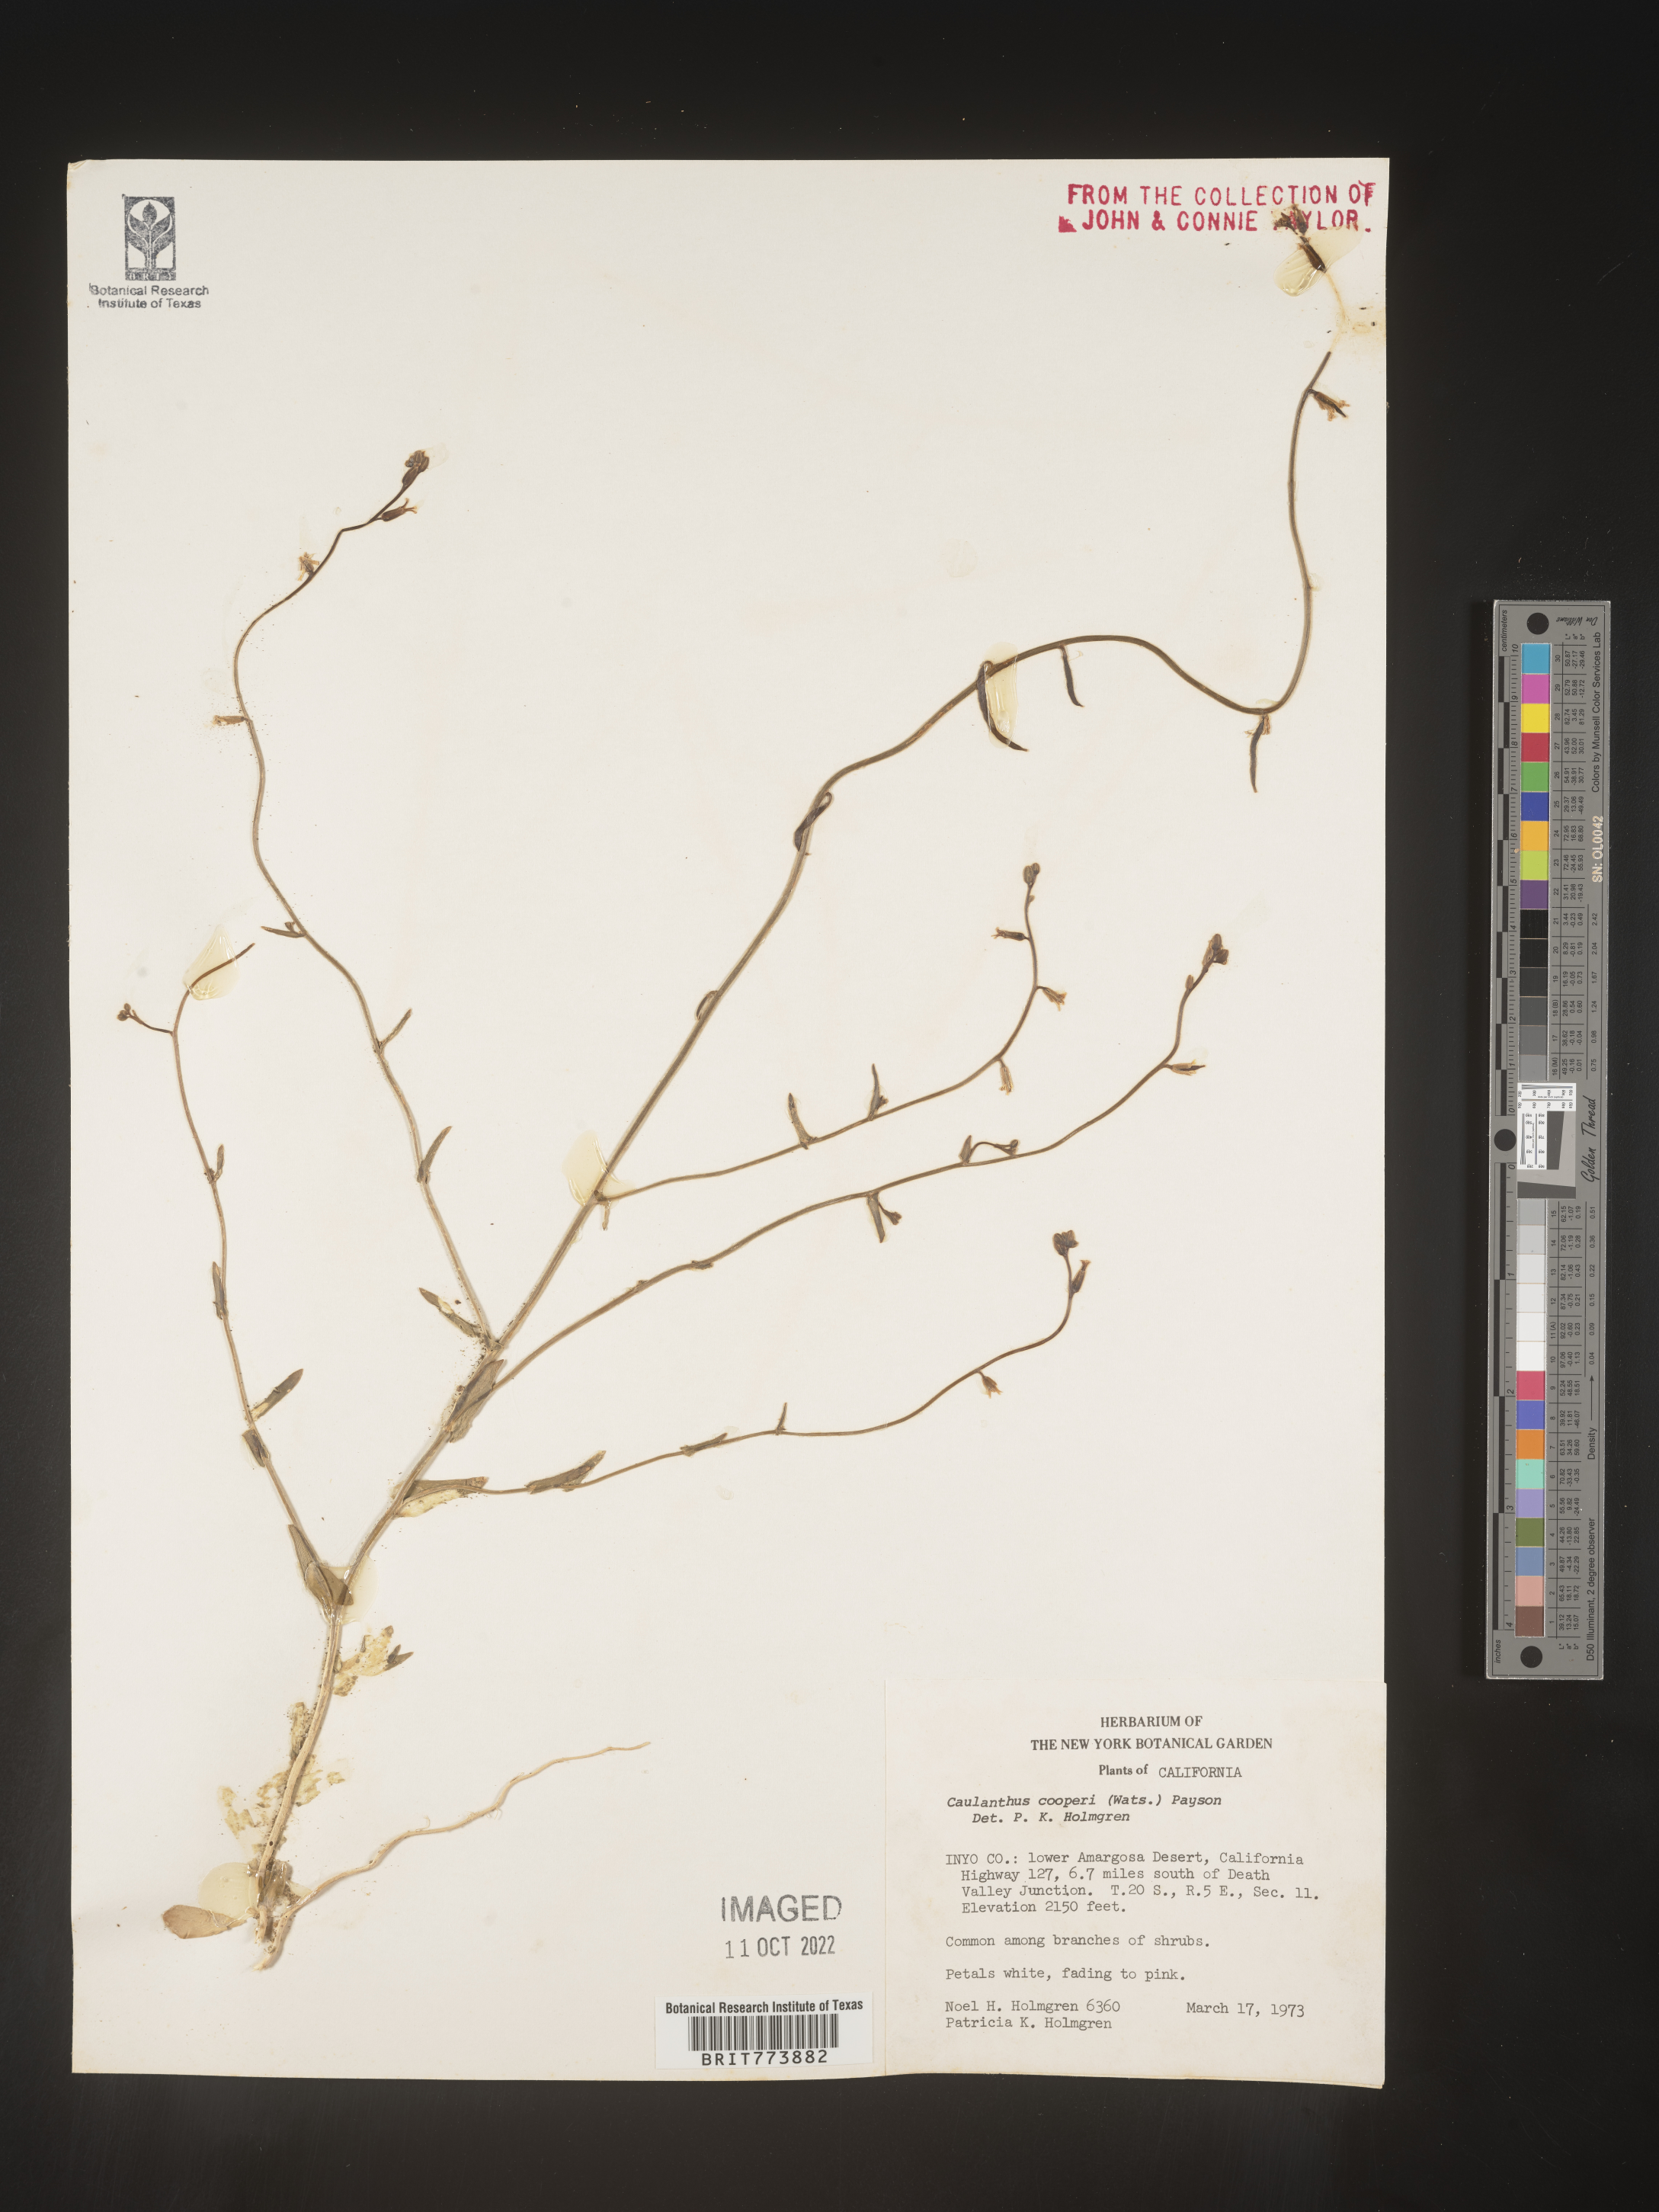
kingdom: Plantae
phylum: Tracheophyta
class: Magnoliopsida
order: Brassicales
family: Brassicaceae
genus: Streptanthus
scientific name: Streptanthus
